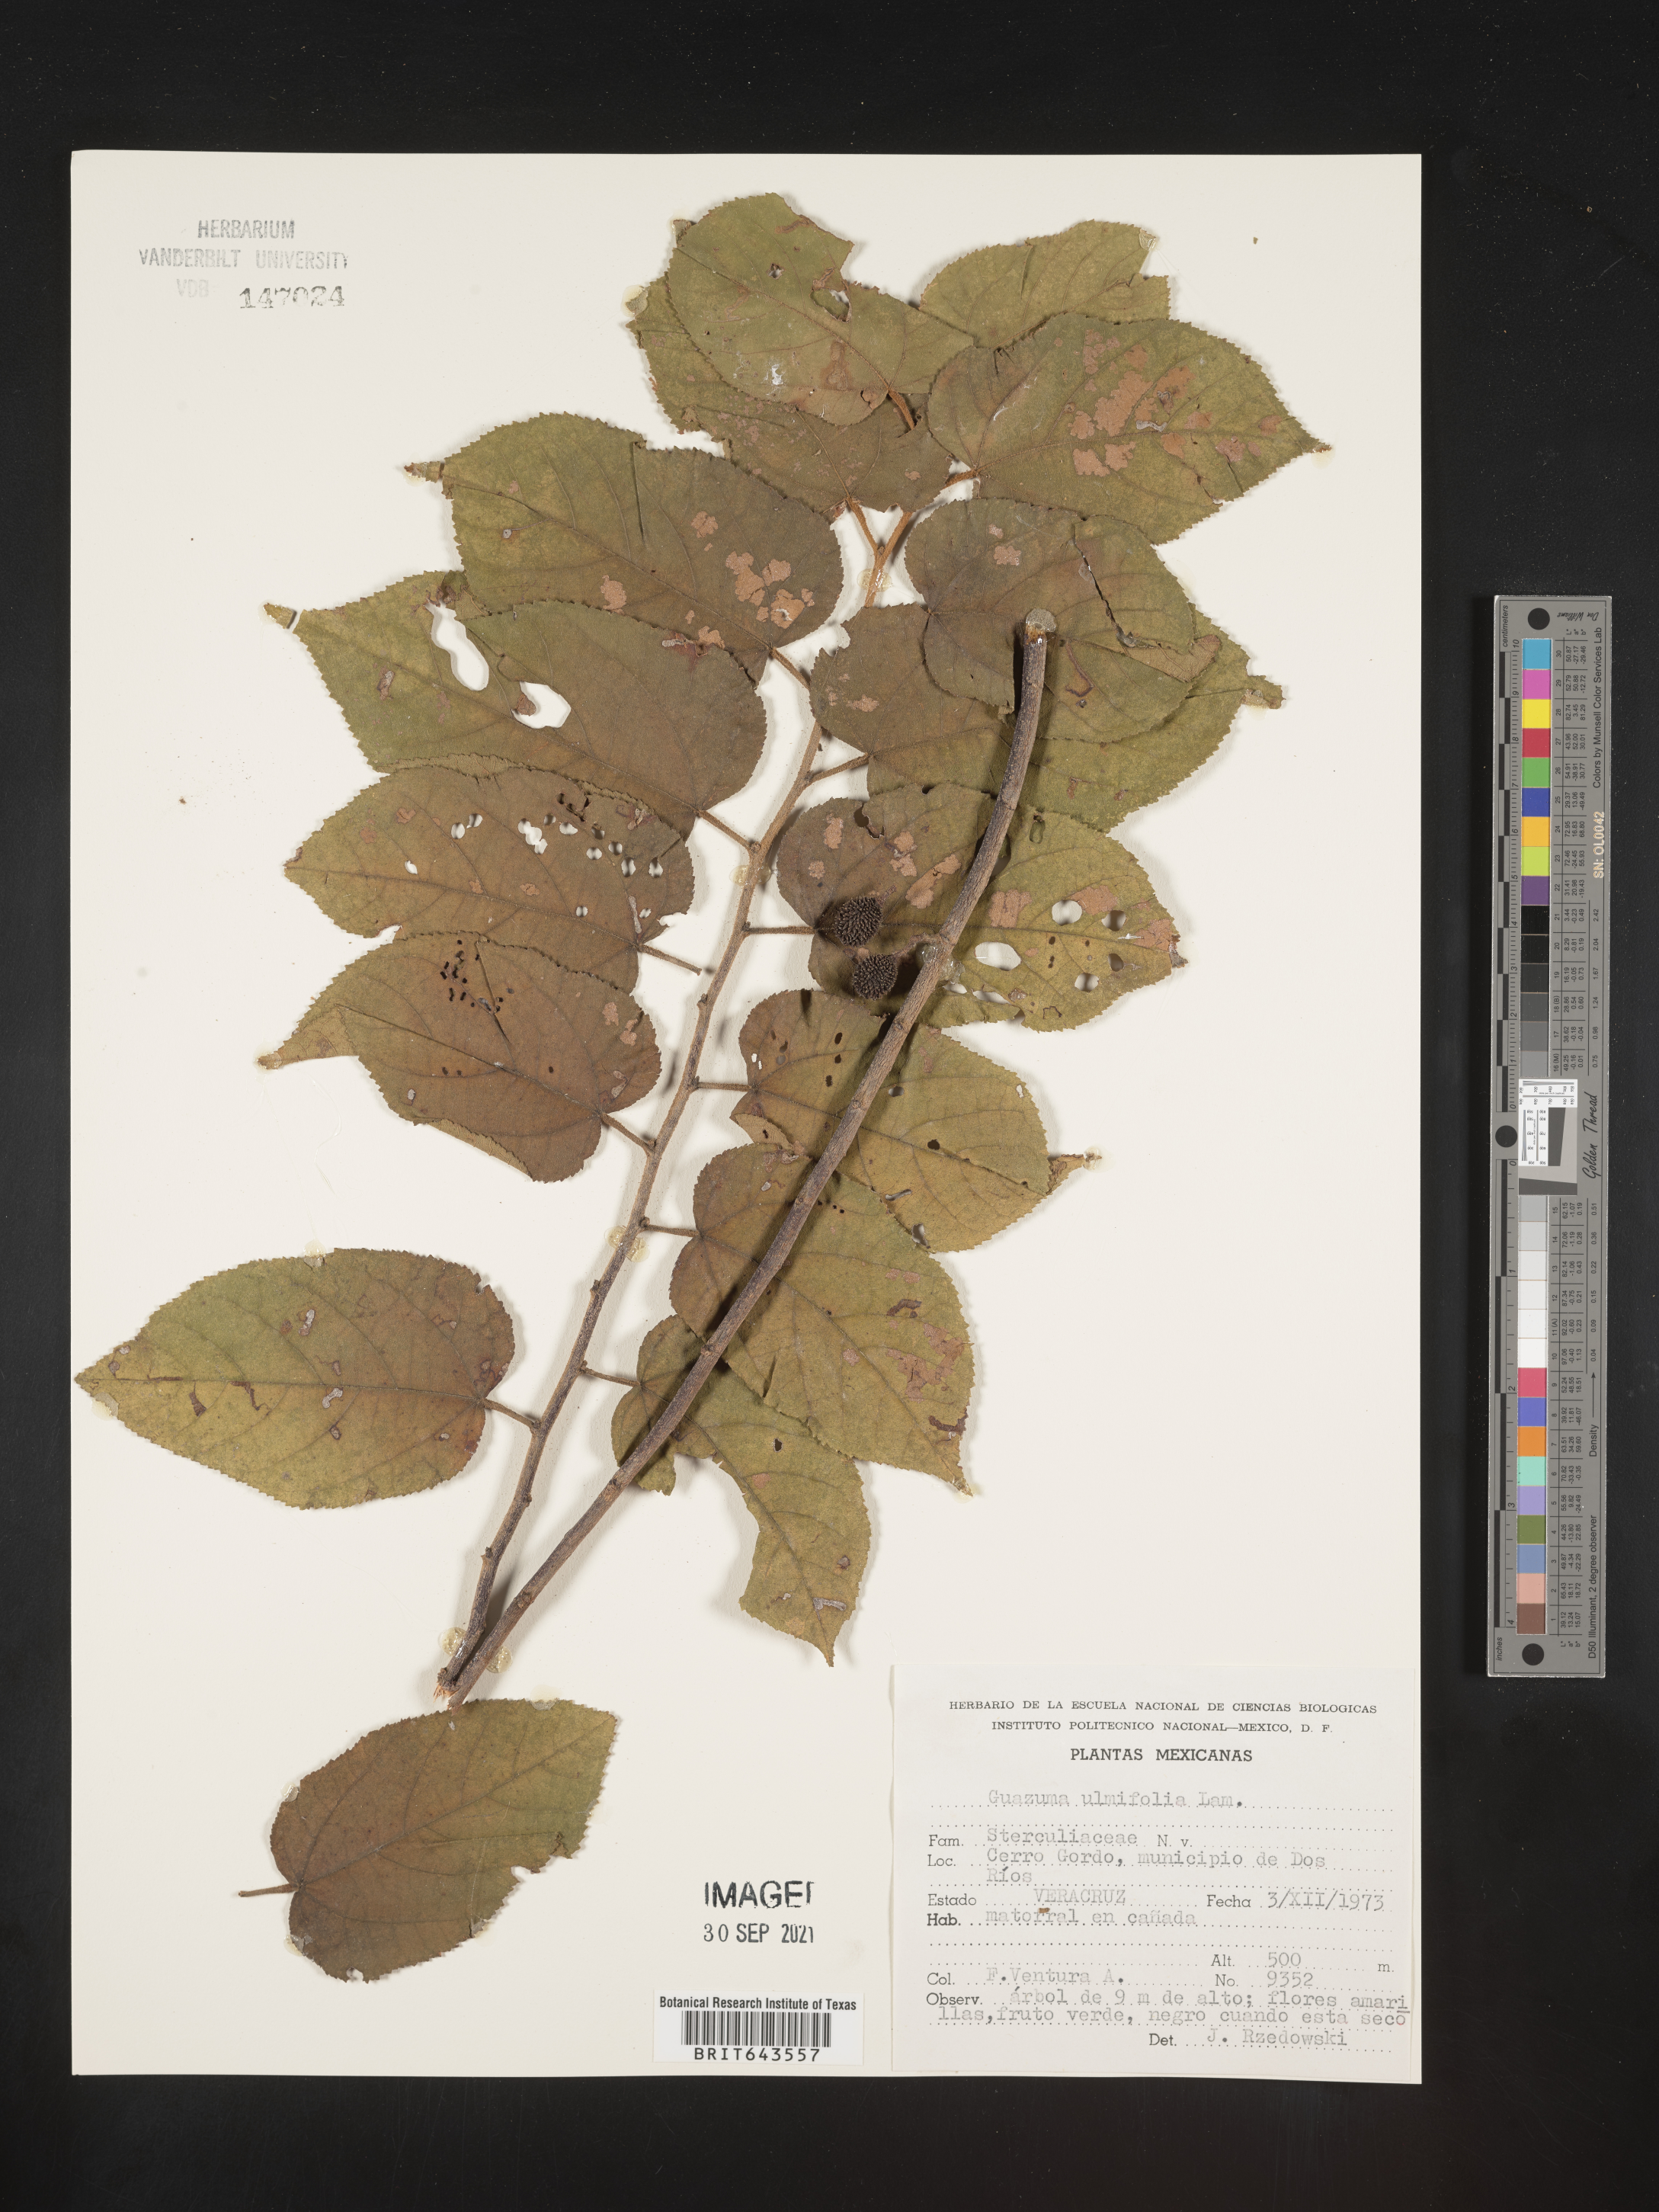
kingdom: Plantae
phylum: Tracheophyta
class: Magnoliopsida
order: Malvales
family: Malvaceae
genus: Guazuma
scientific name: Guazuma
